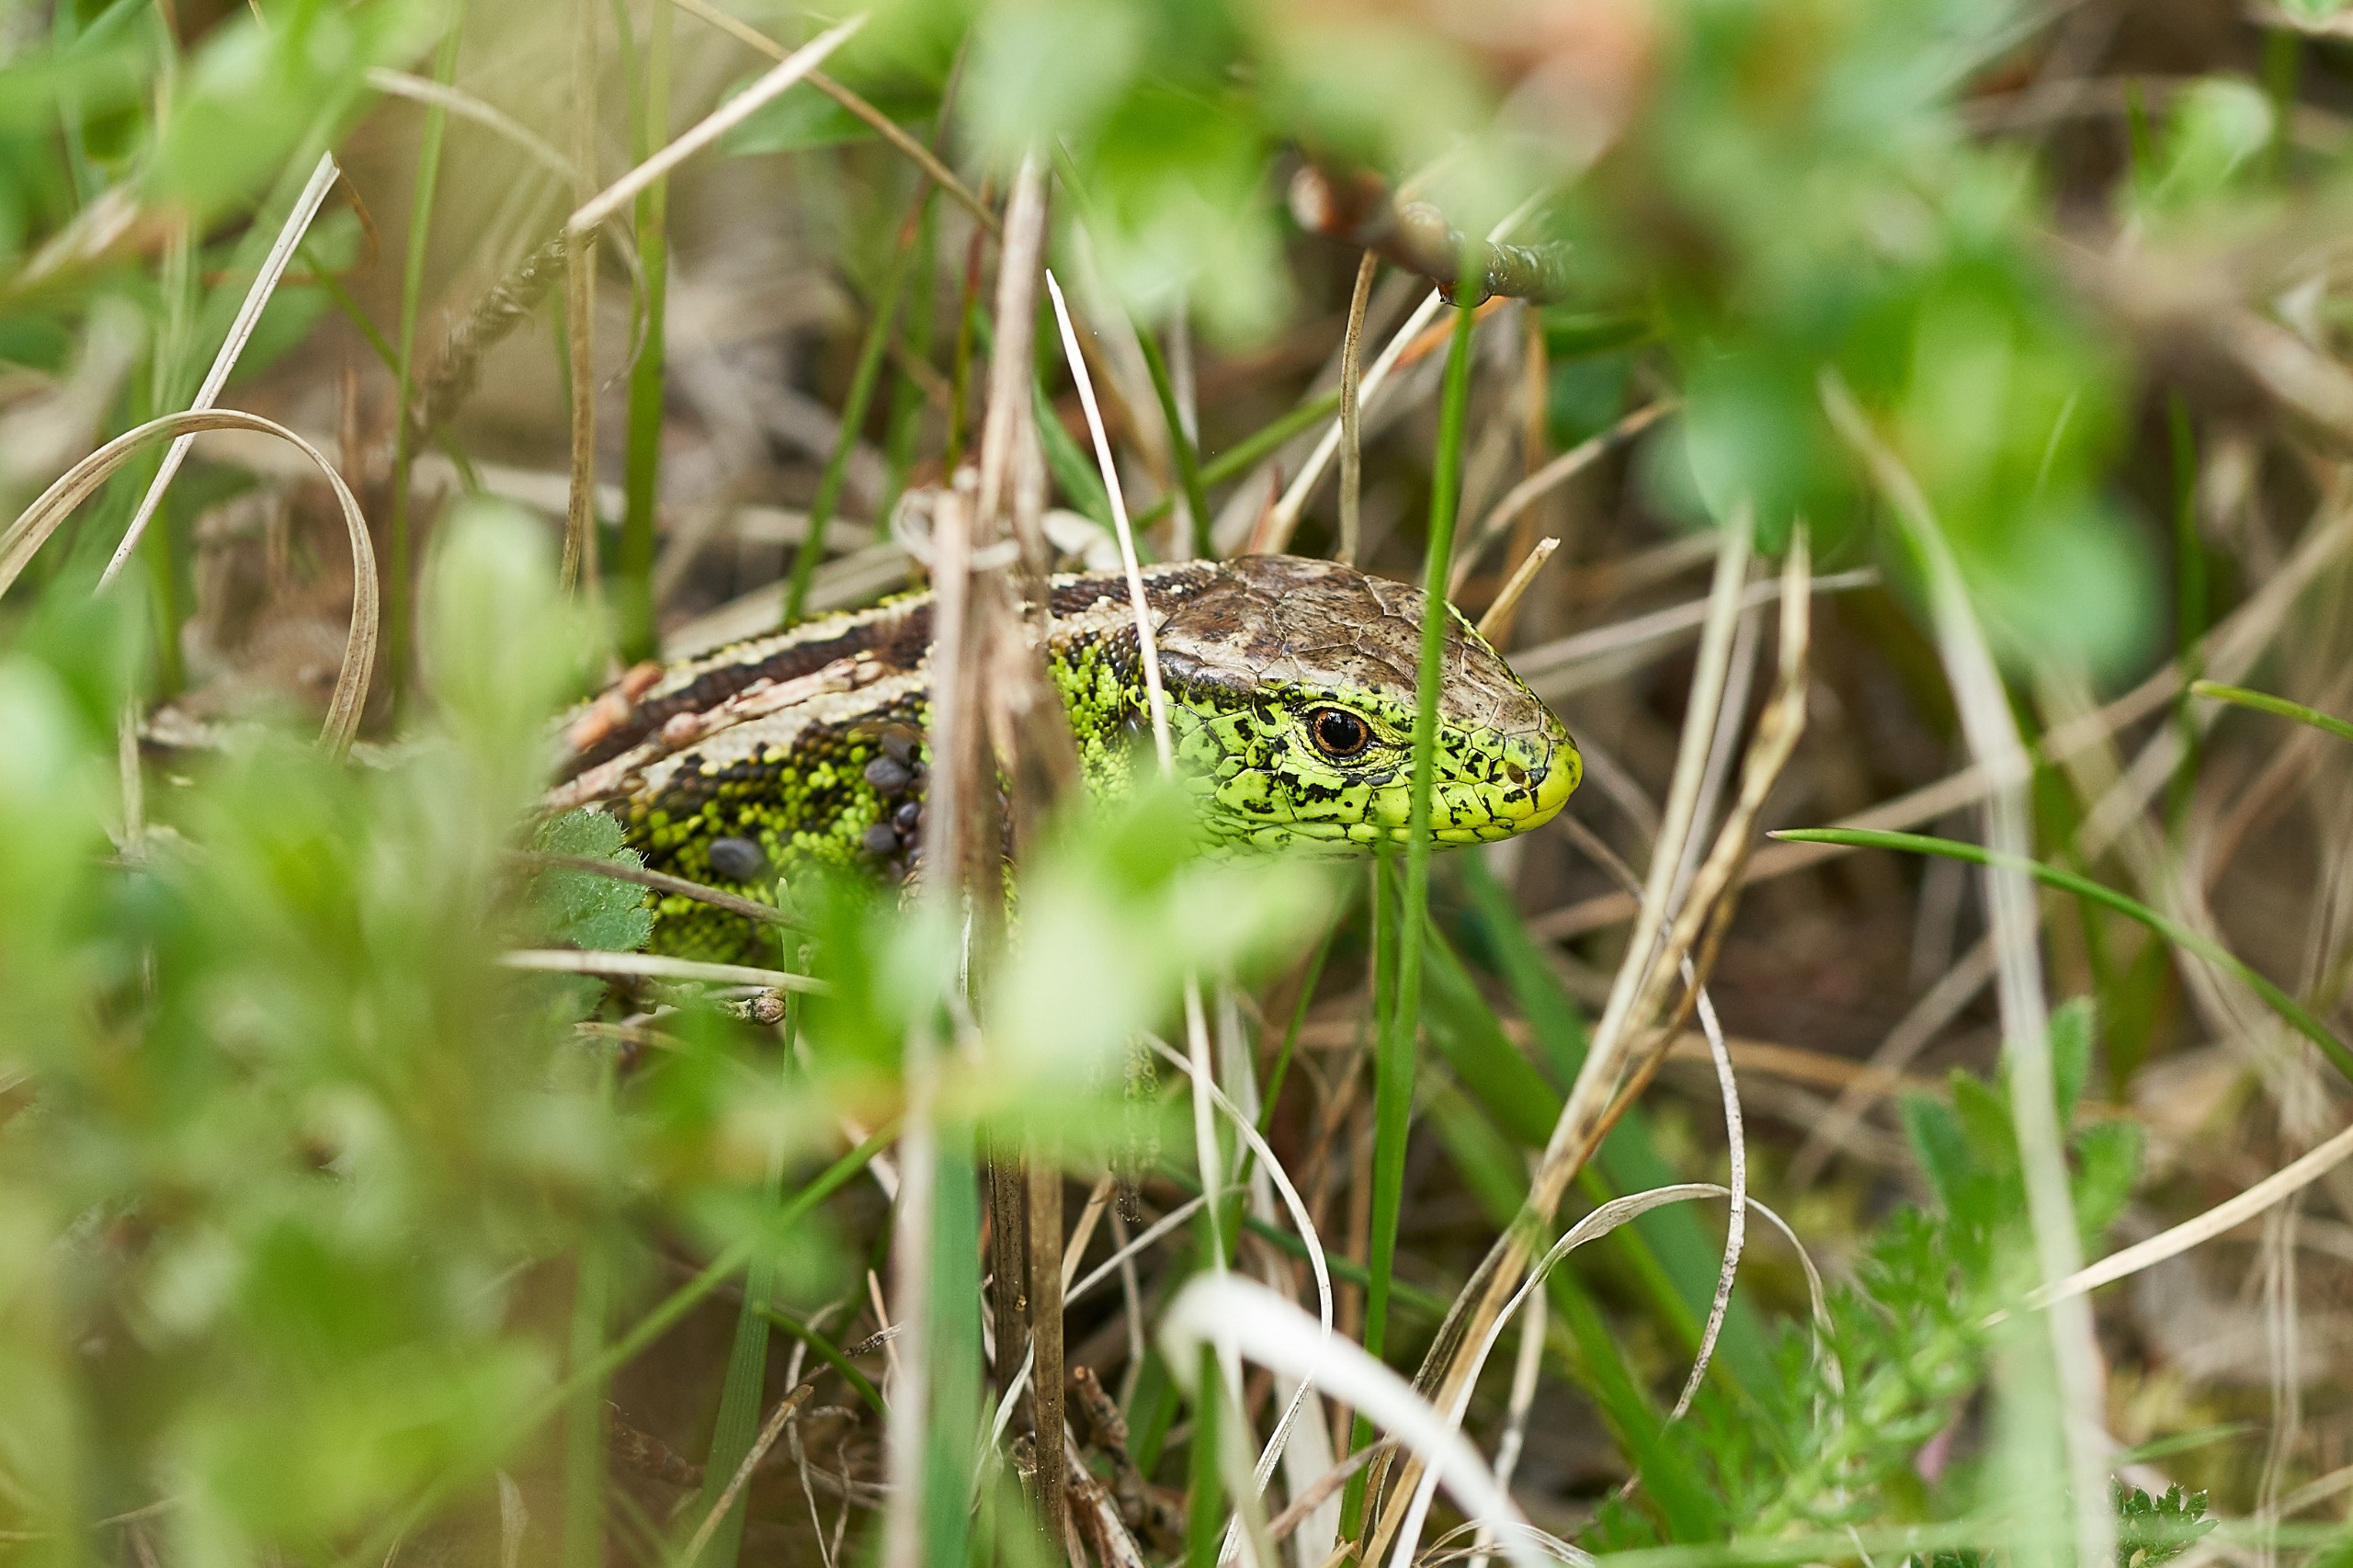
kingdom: Animalia
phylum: Chordata
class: Squamata
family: Lacertidae
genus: Lacerta
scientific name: Lacerta agilis
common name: Markfirben
